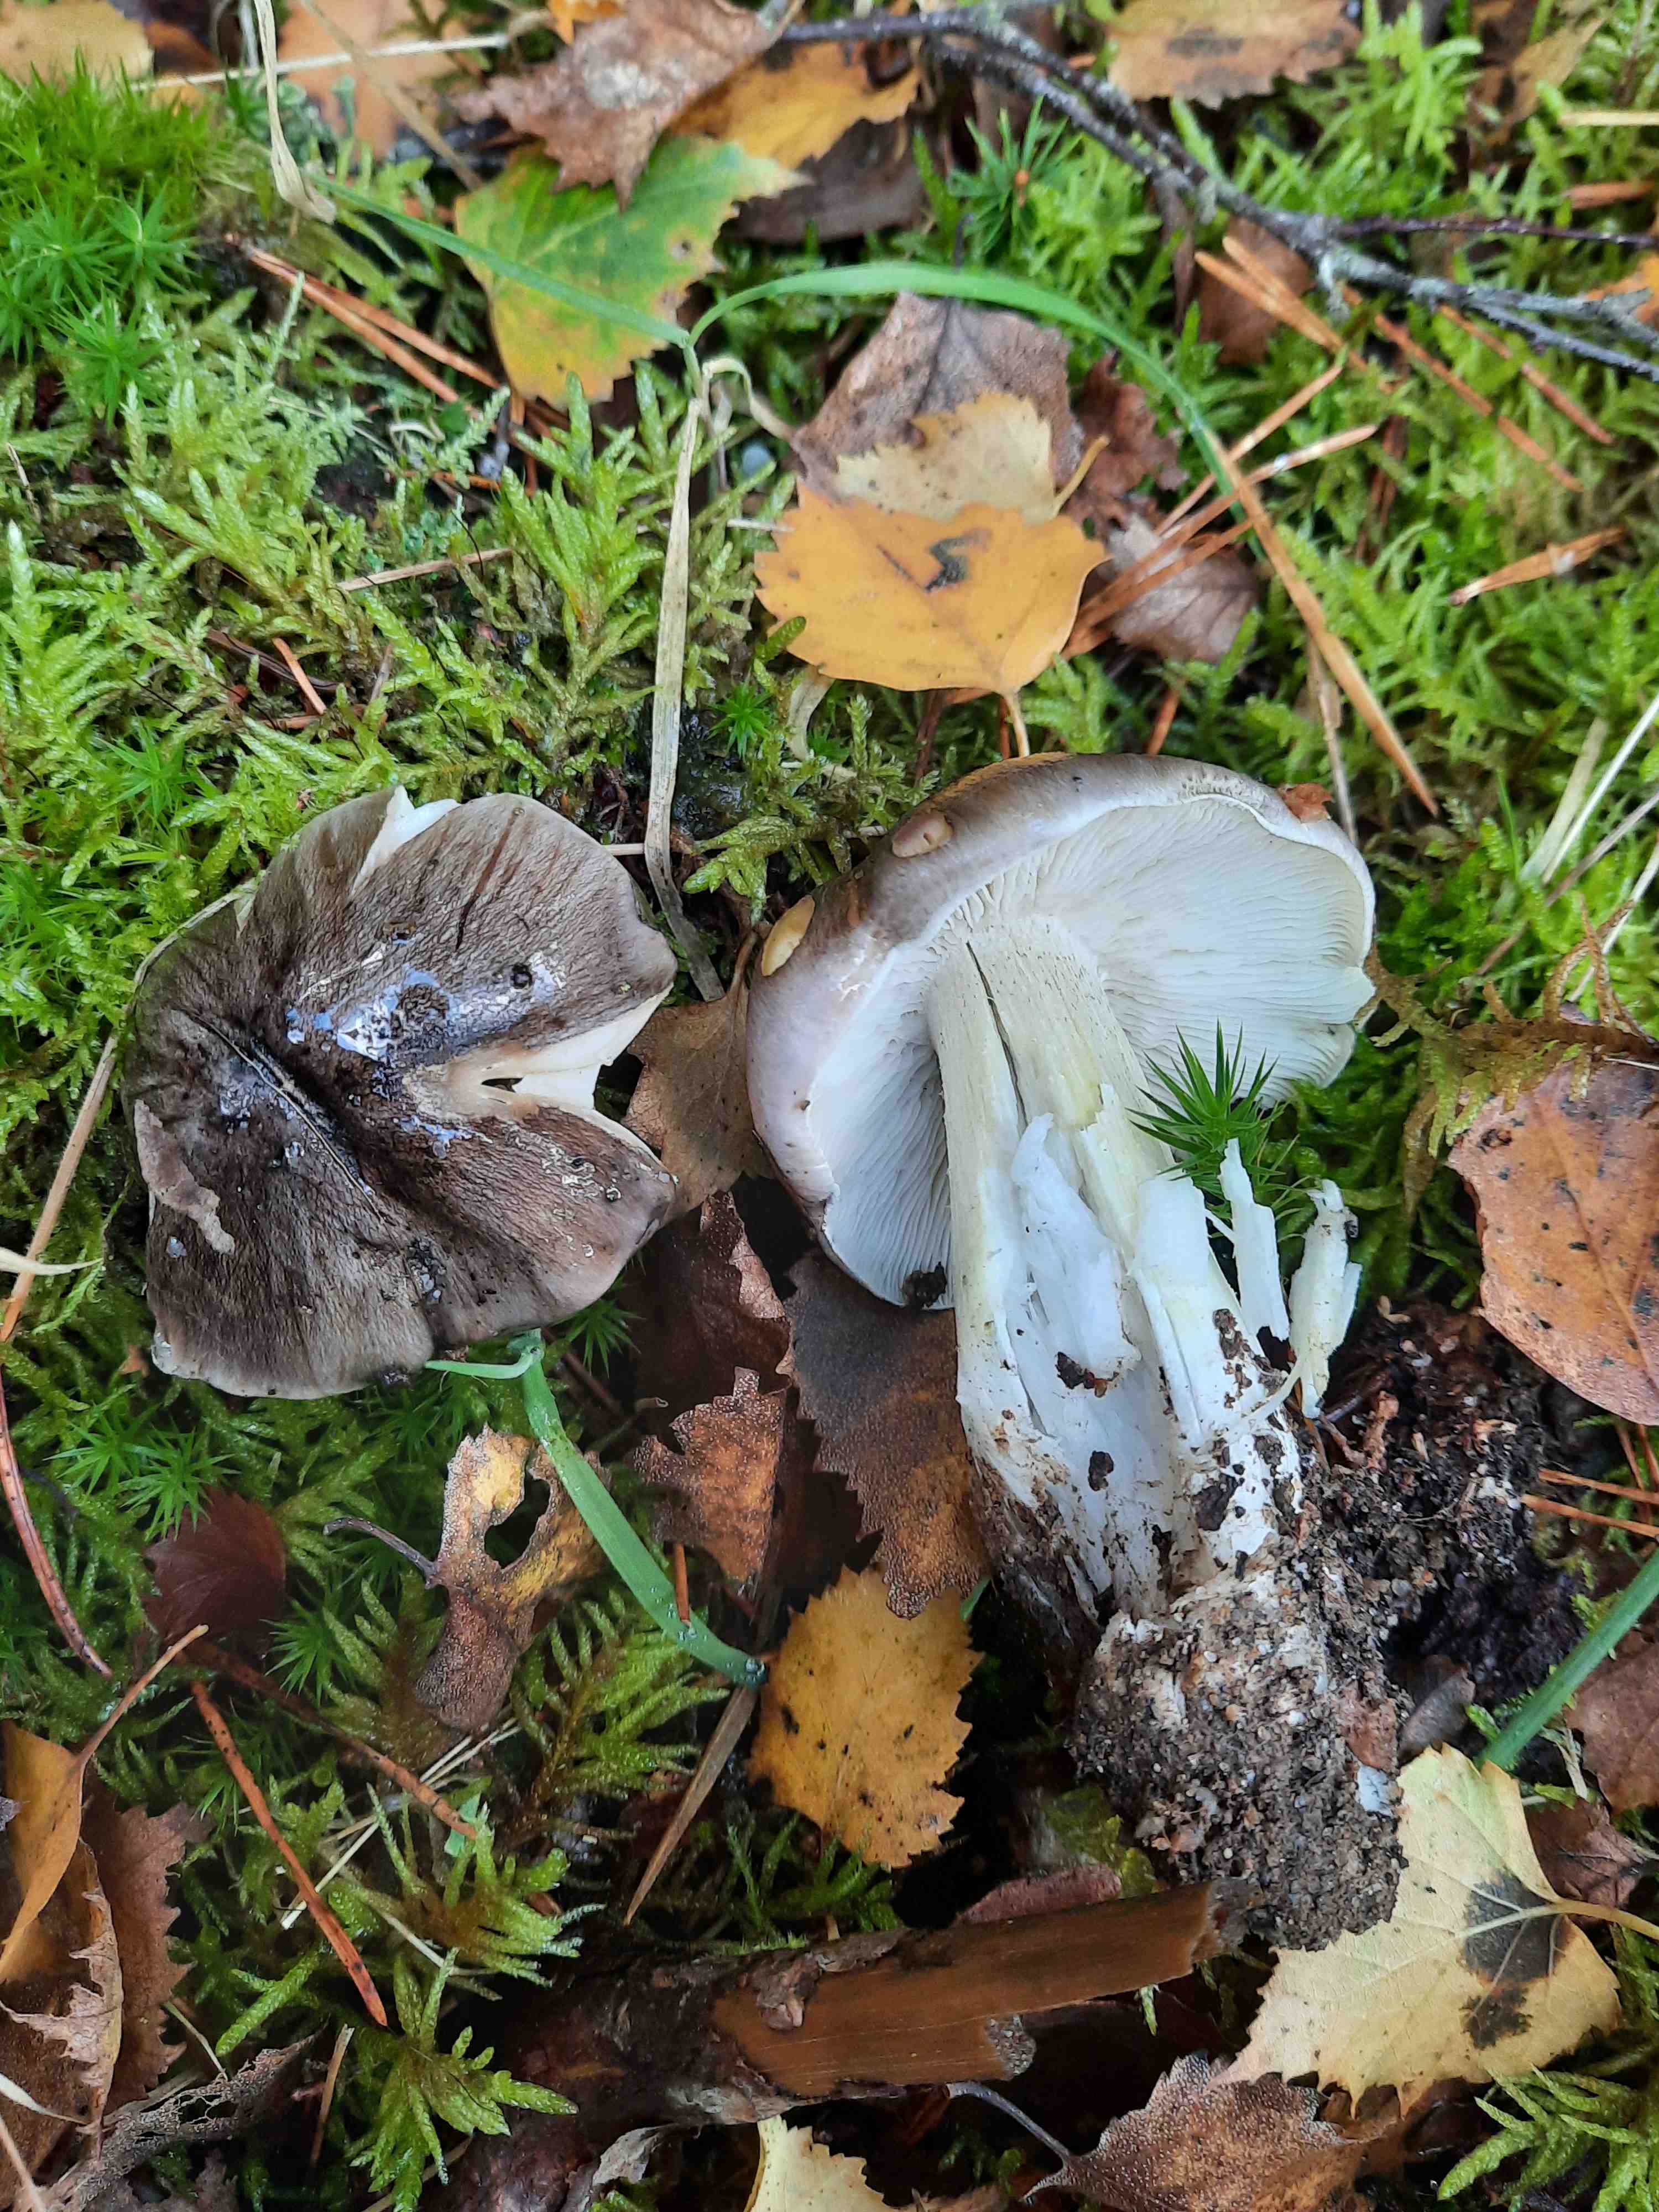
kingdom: Fungi
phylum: Basidiomycota
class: Agaricomycetes
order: Agaricales
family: Tricholomataceae
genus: Tricholoma
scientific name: Tricholoma portentosum
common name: grå ridderhat
